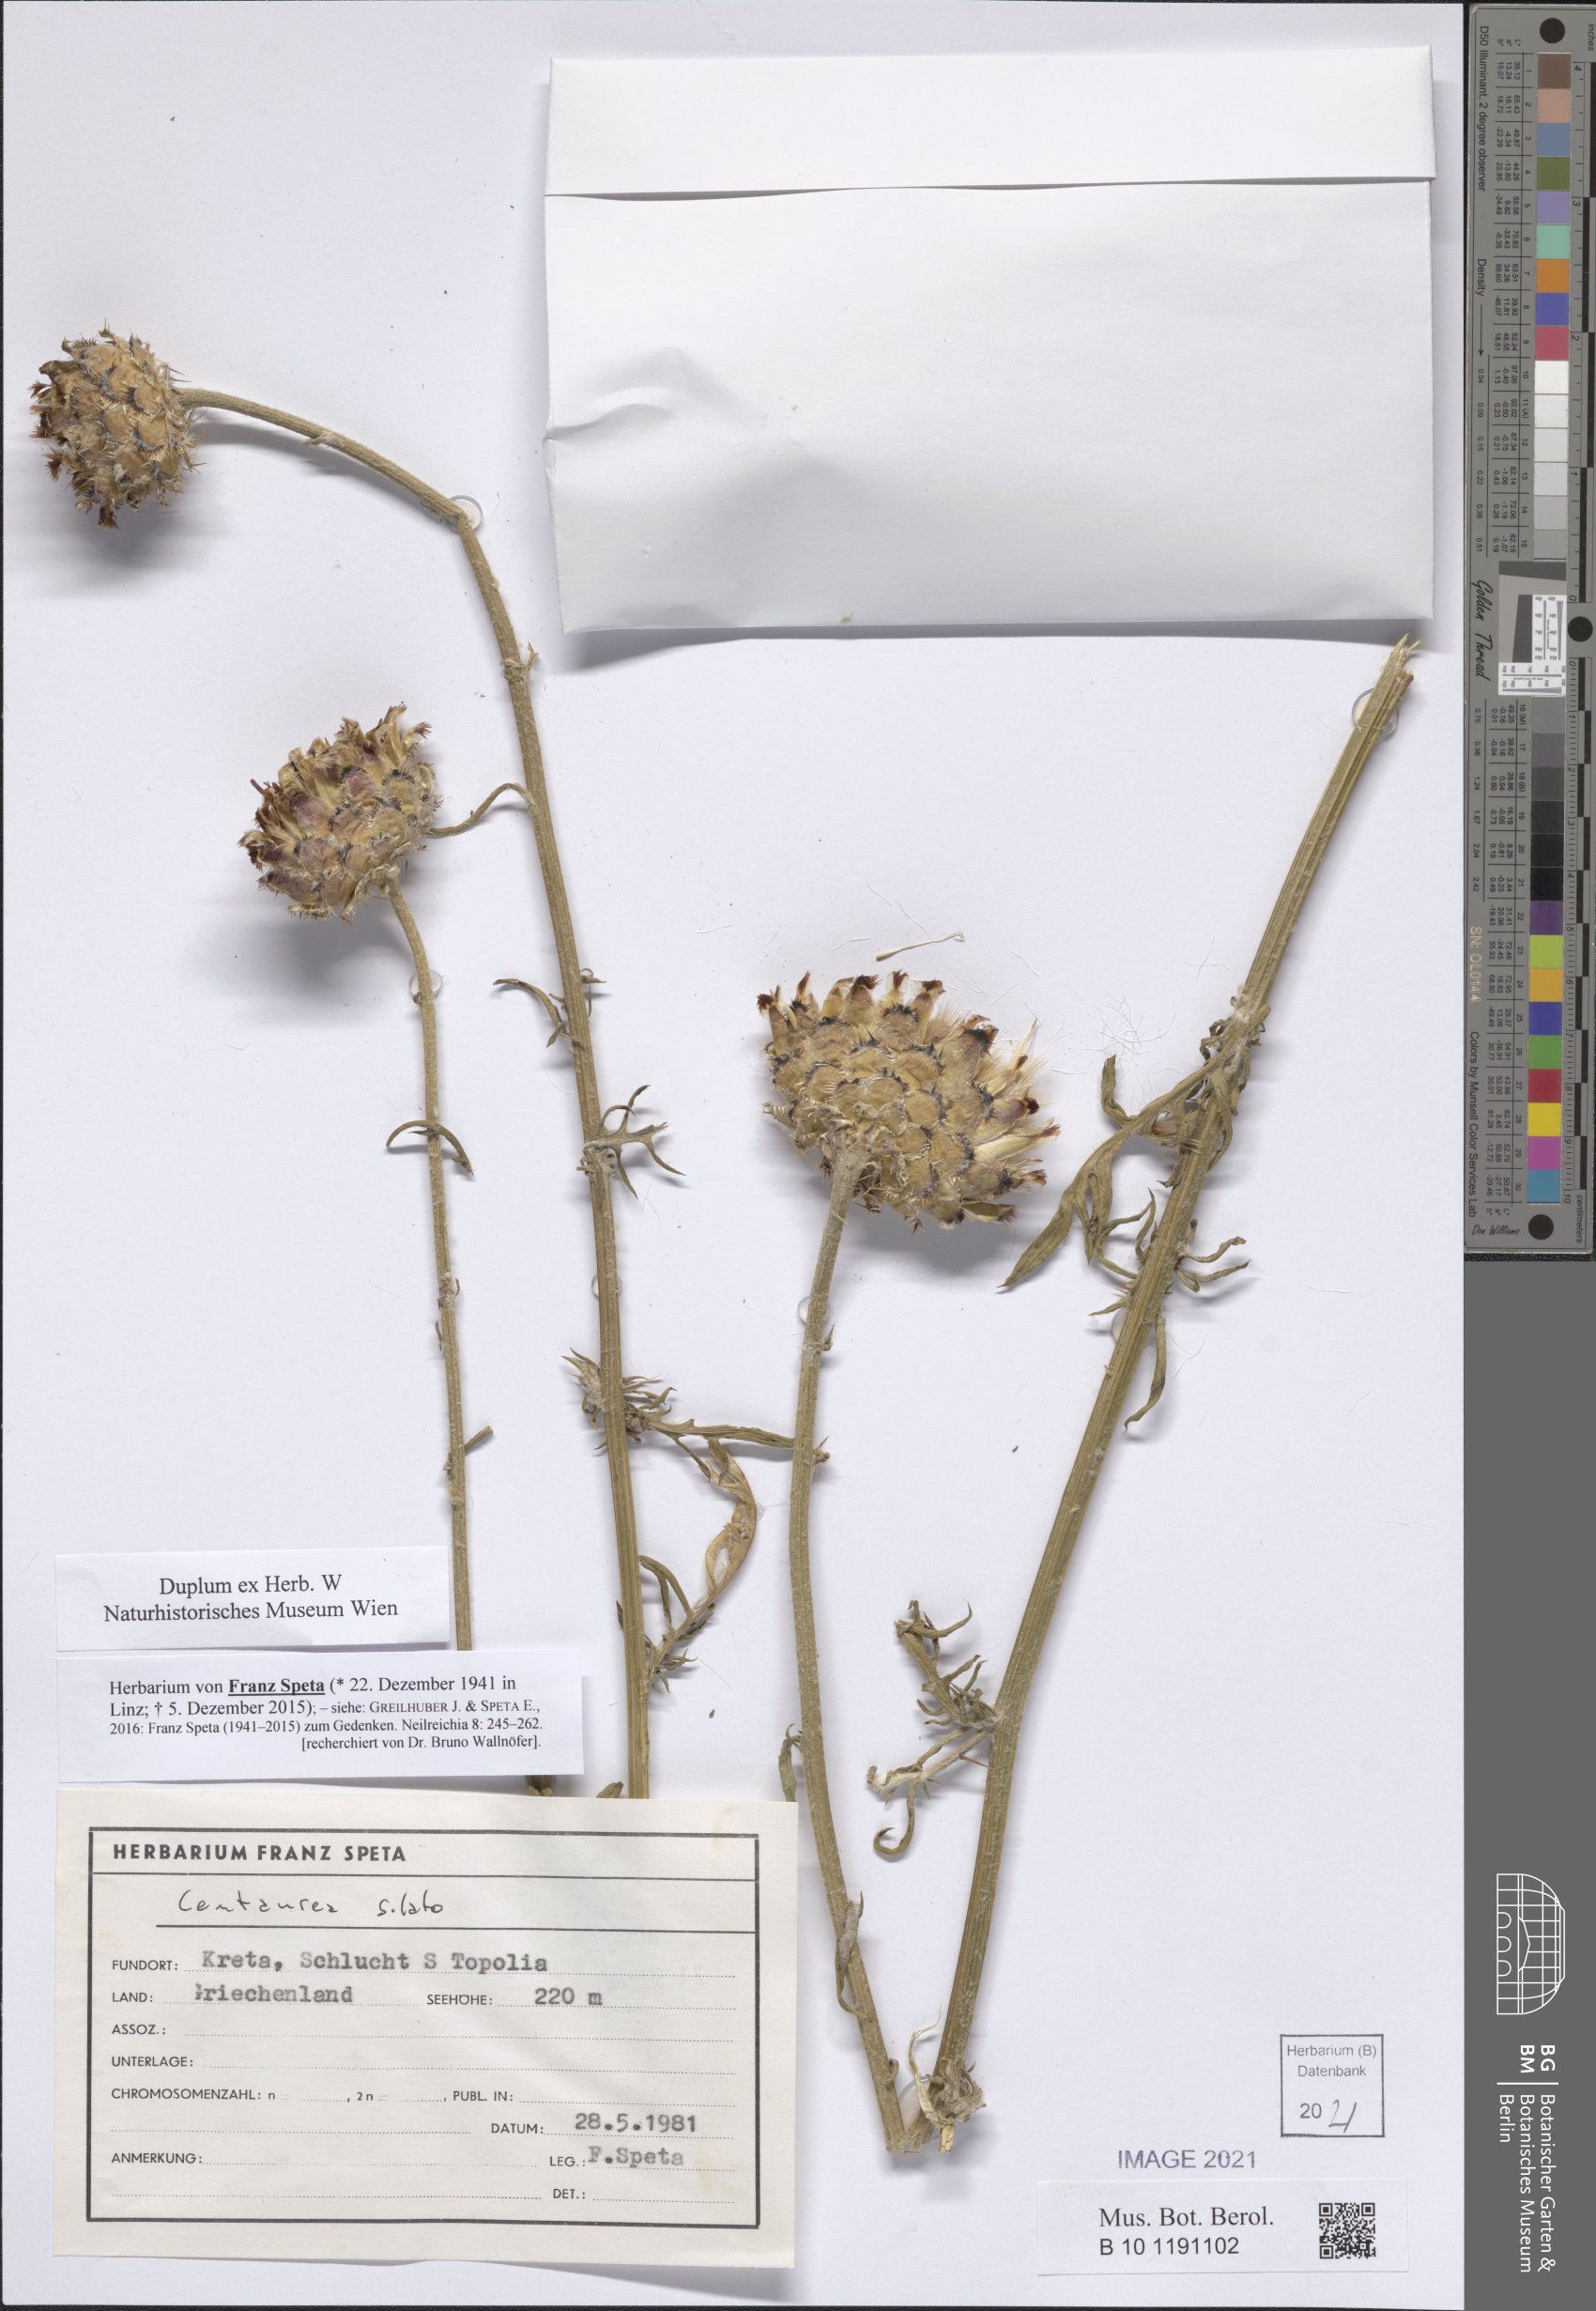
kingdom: Plantae
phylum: Tracheophyta
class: Magnoliopsida
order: Asterales
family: Asteraceae
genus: Centaurea
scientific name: Centaurea
